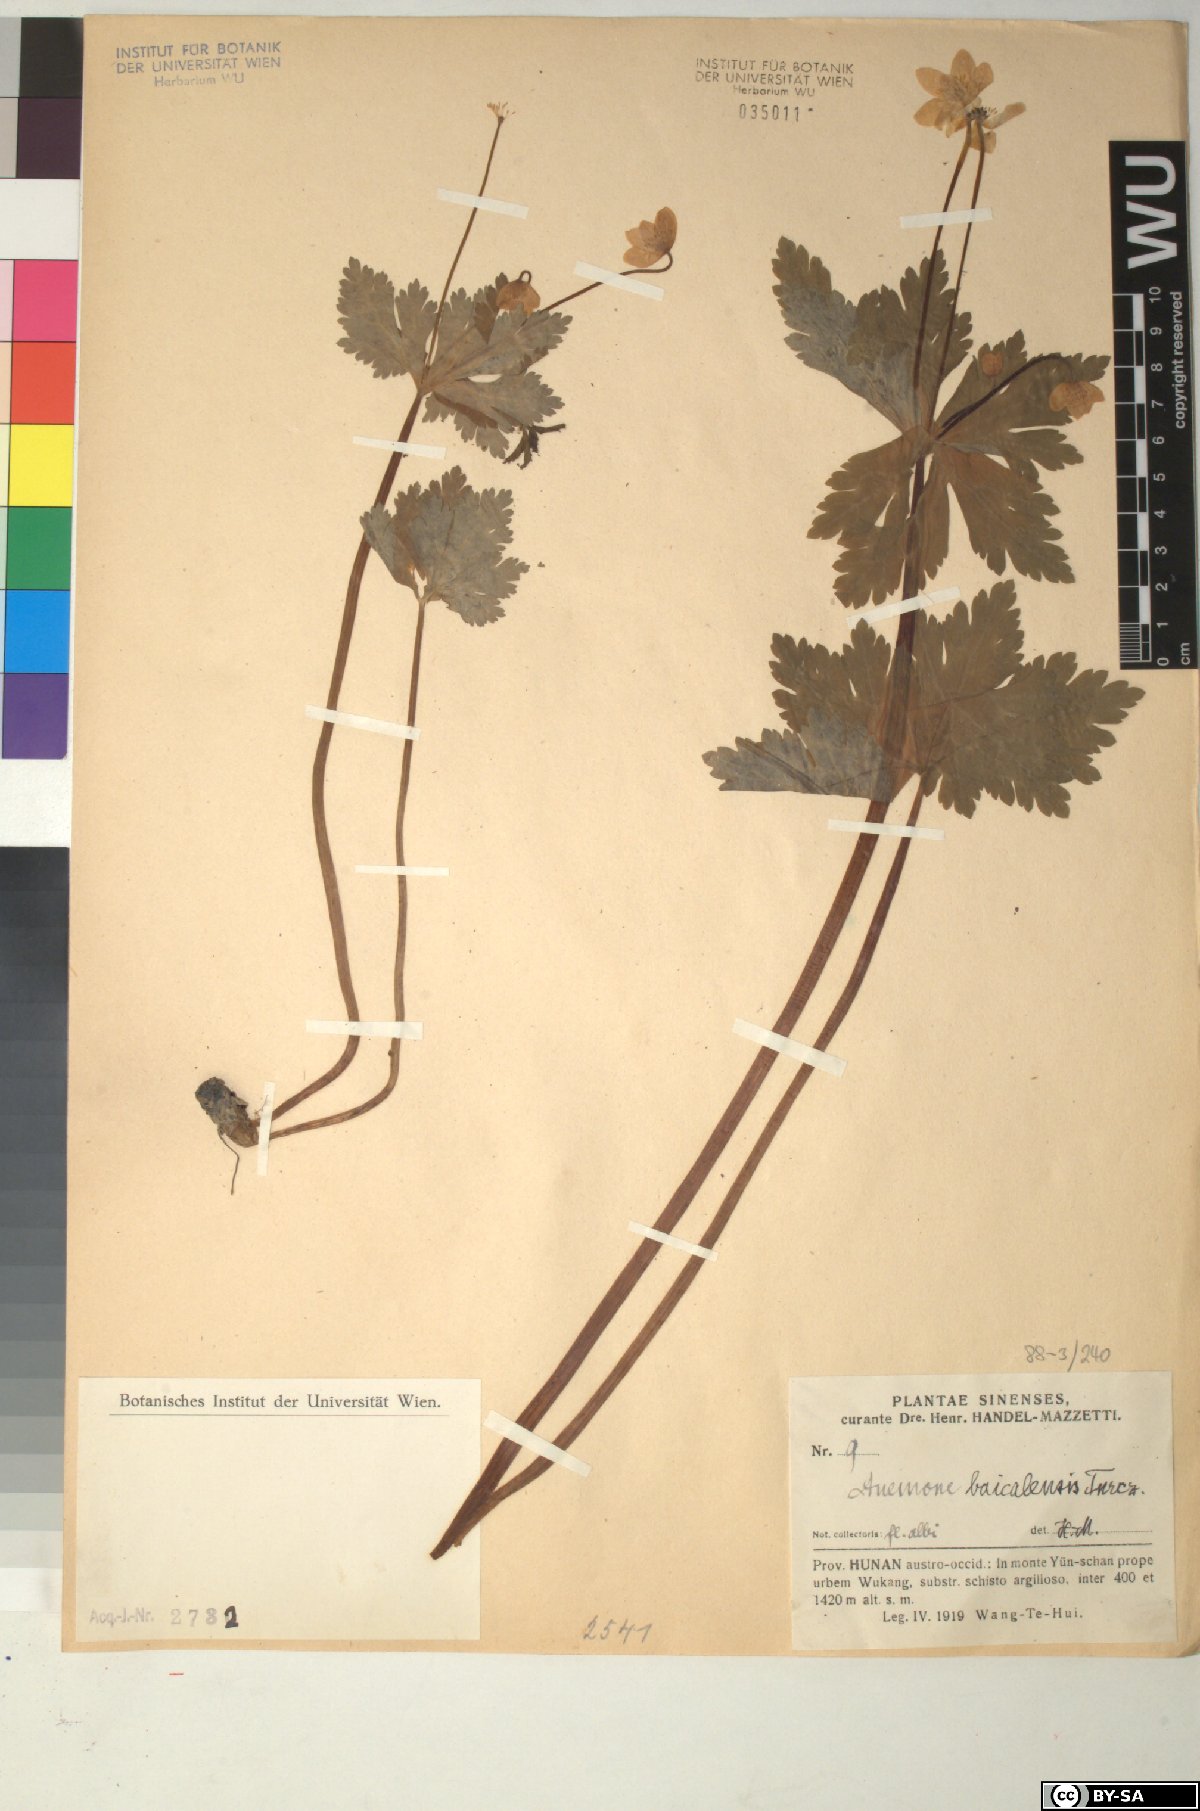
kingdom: Plantae
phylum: Tracheophyta
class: Magnoliopsida
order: Ranunculales
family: Ranunculaceae
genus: Anemonastrum
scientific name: Anemonastrum baicalense
